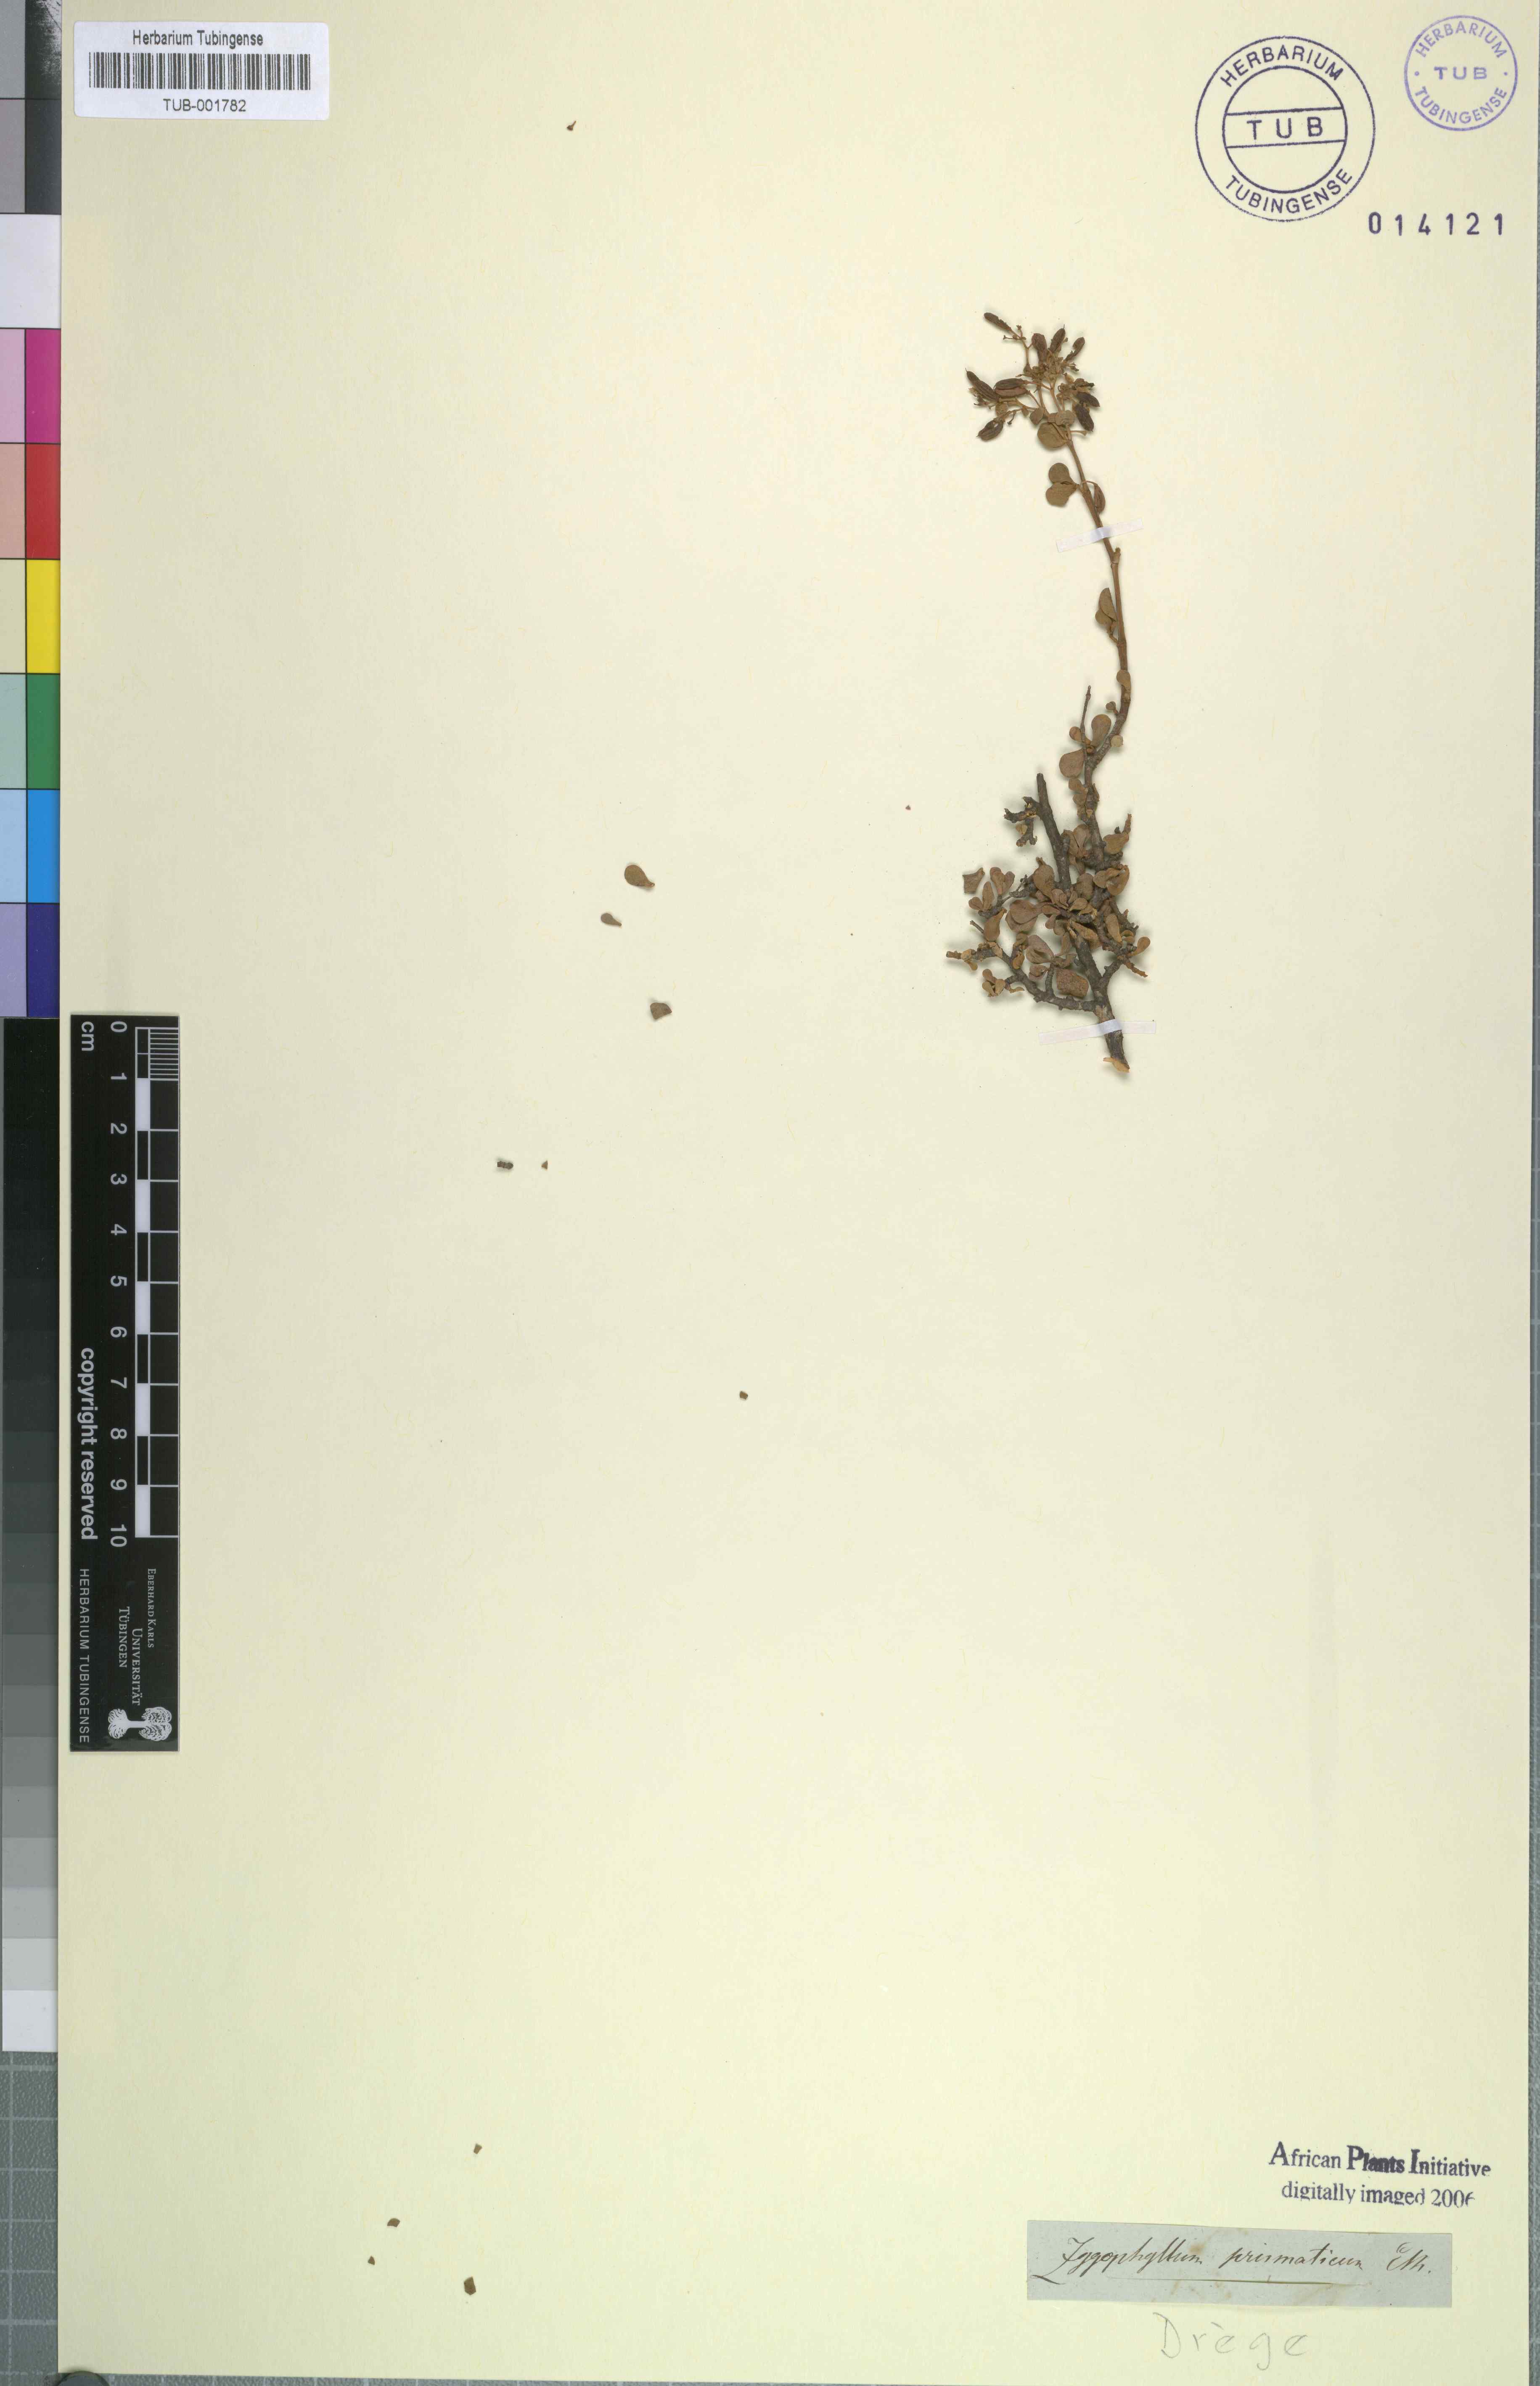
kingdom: Plantae
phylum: Tracheophyta
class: Magnoliopsida
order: Zygophyllales
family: Zygophyllaceae
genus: Tetraena
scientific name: Tetraena prismatocarpa
